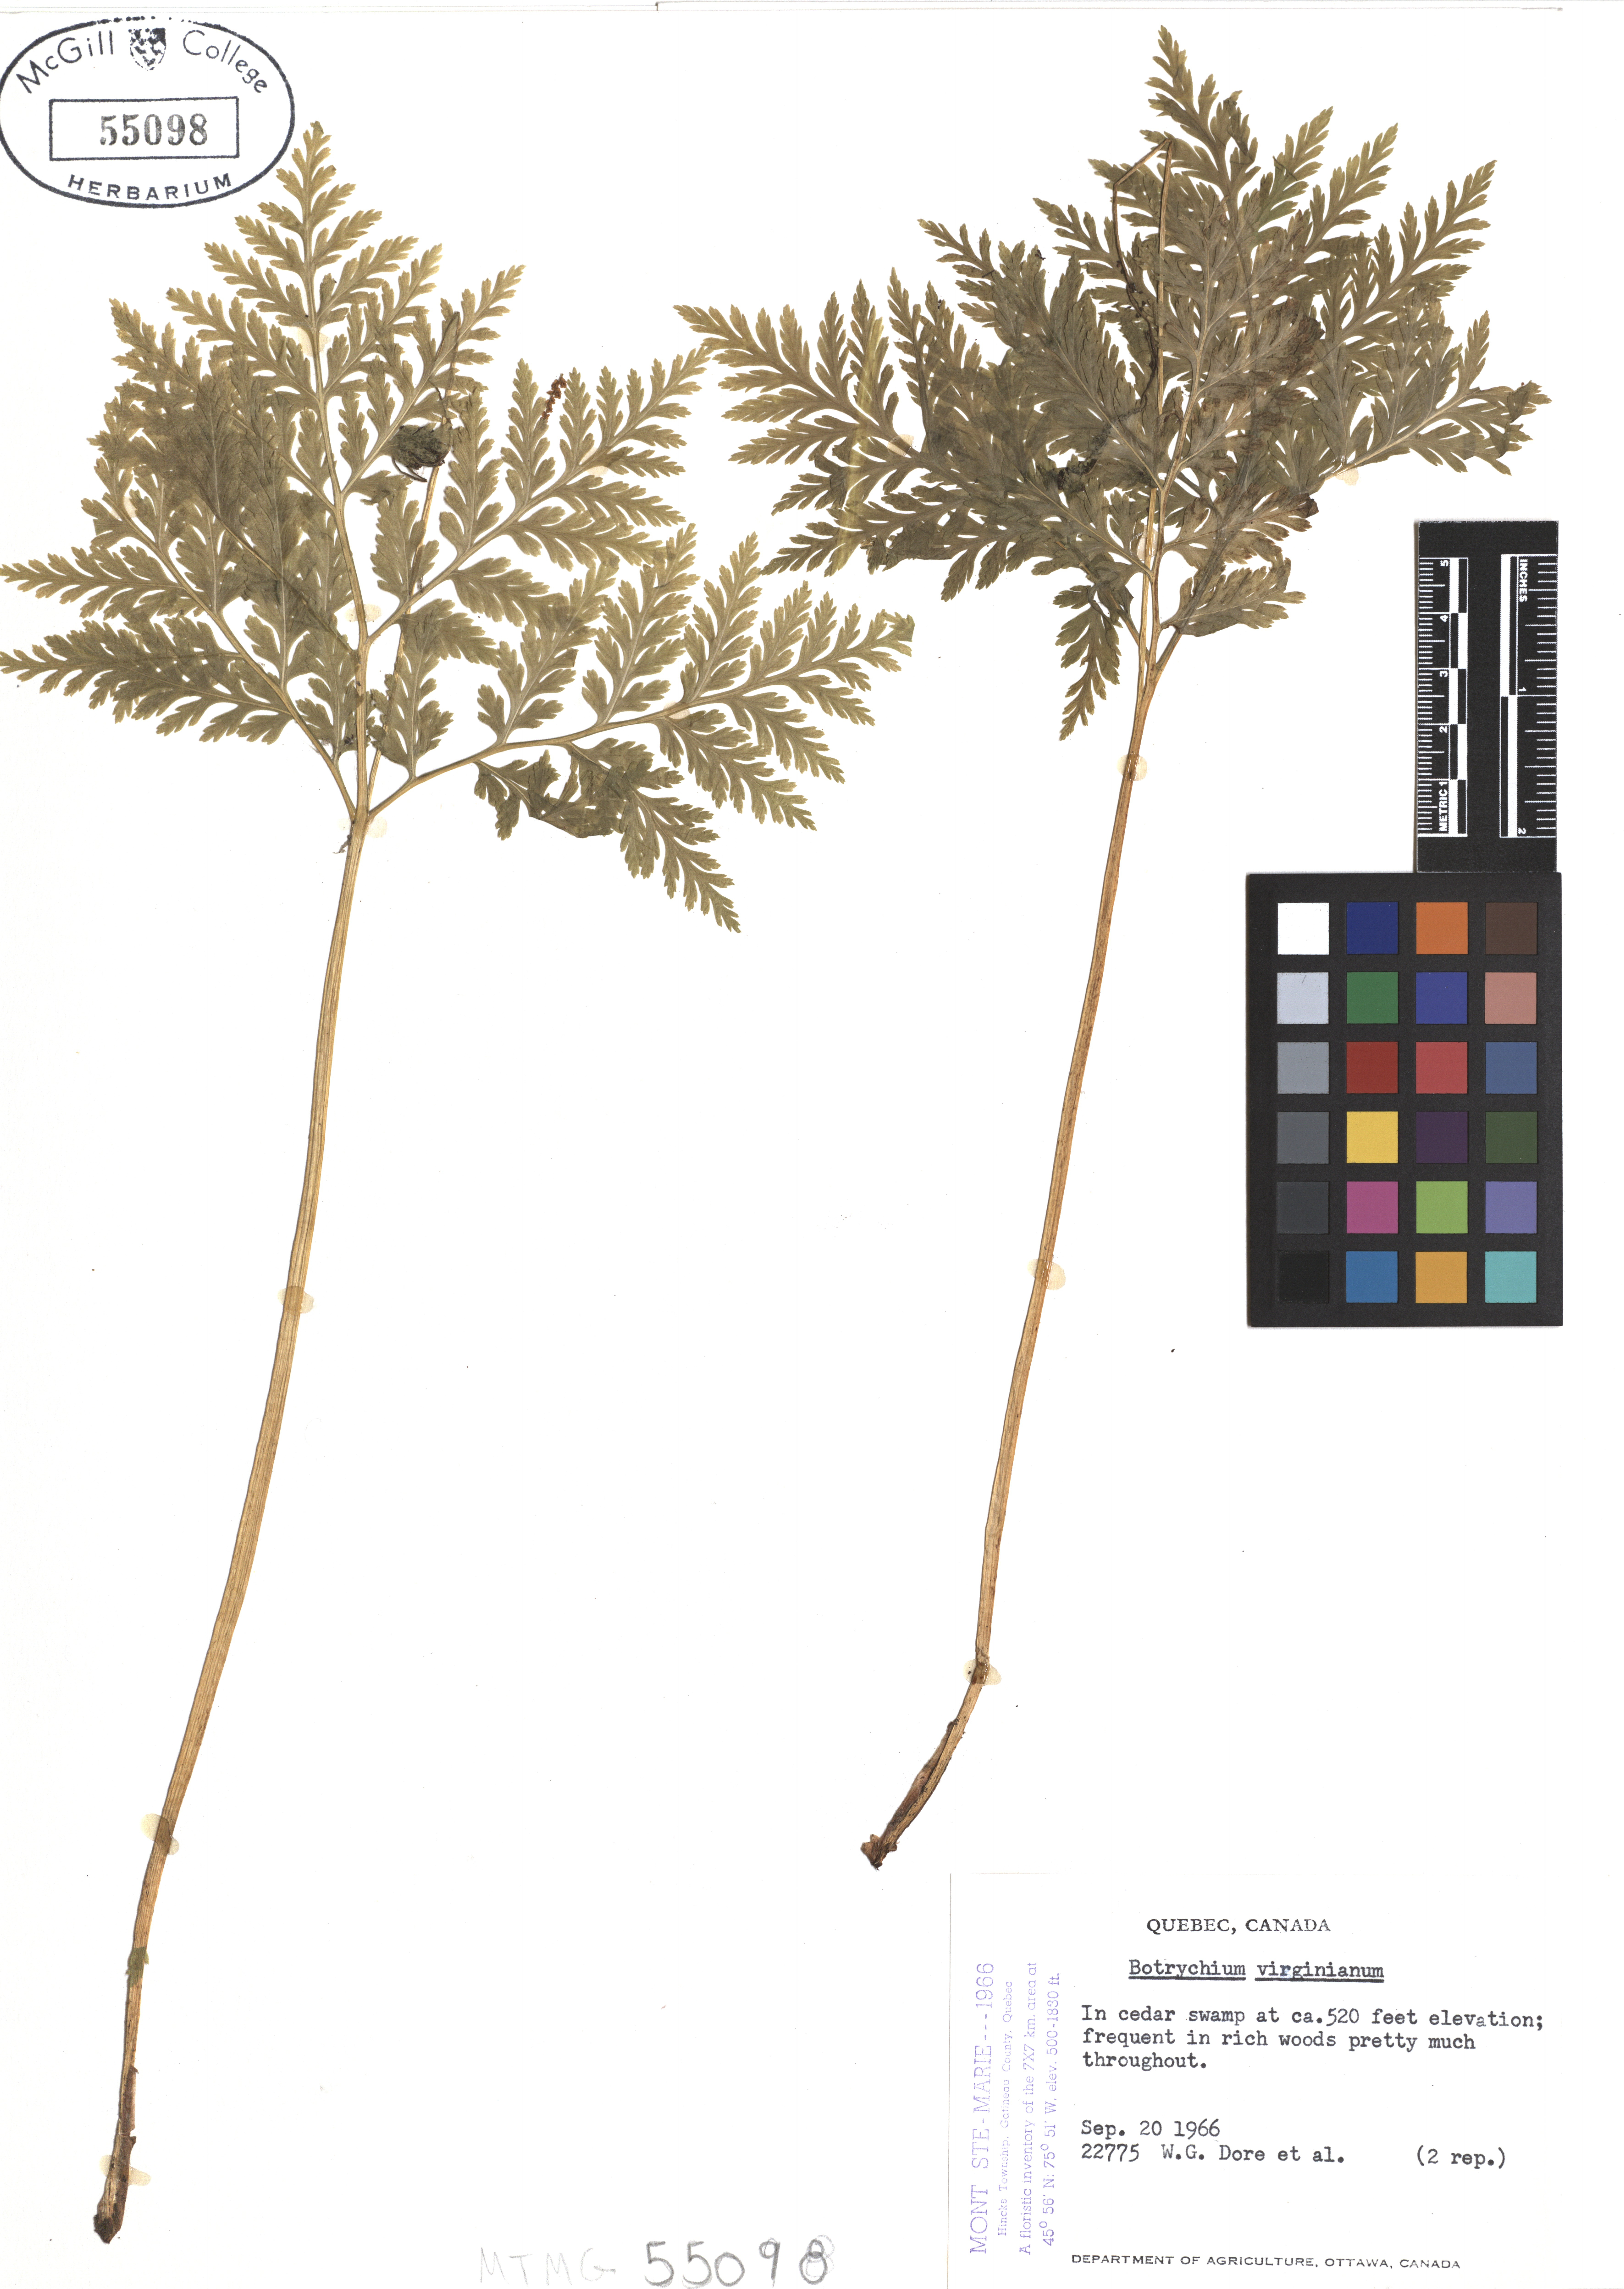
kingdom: Plantae
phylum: Tracheophyta
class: Polypodiopsida
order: Ophioglossales
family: Ophioglossaceae
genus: Botrypus
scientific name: Botrypus virginianus
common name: Common grapefern
